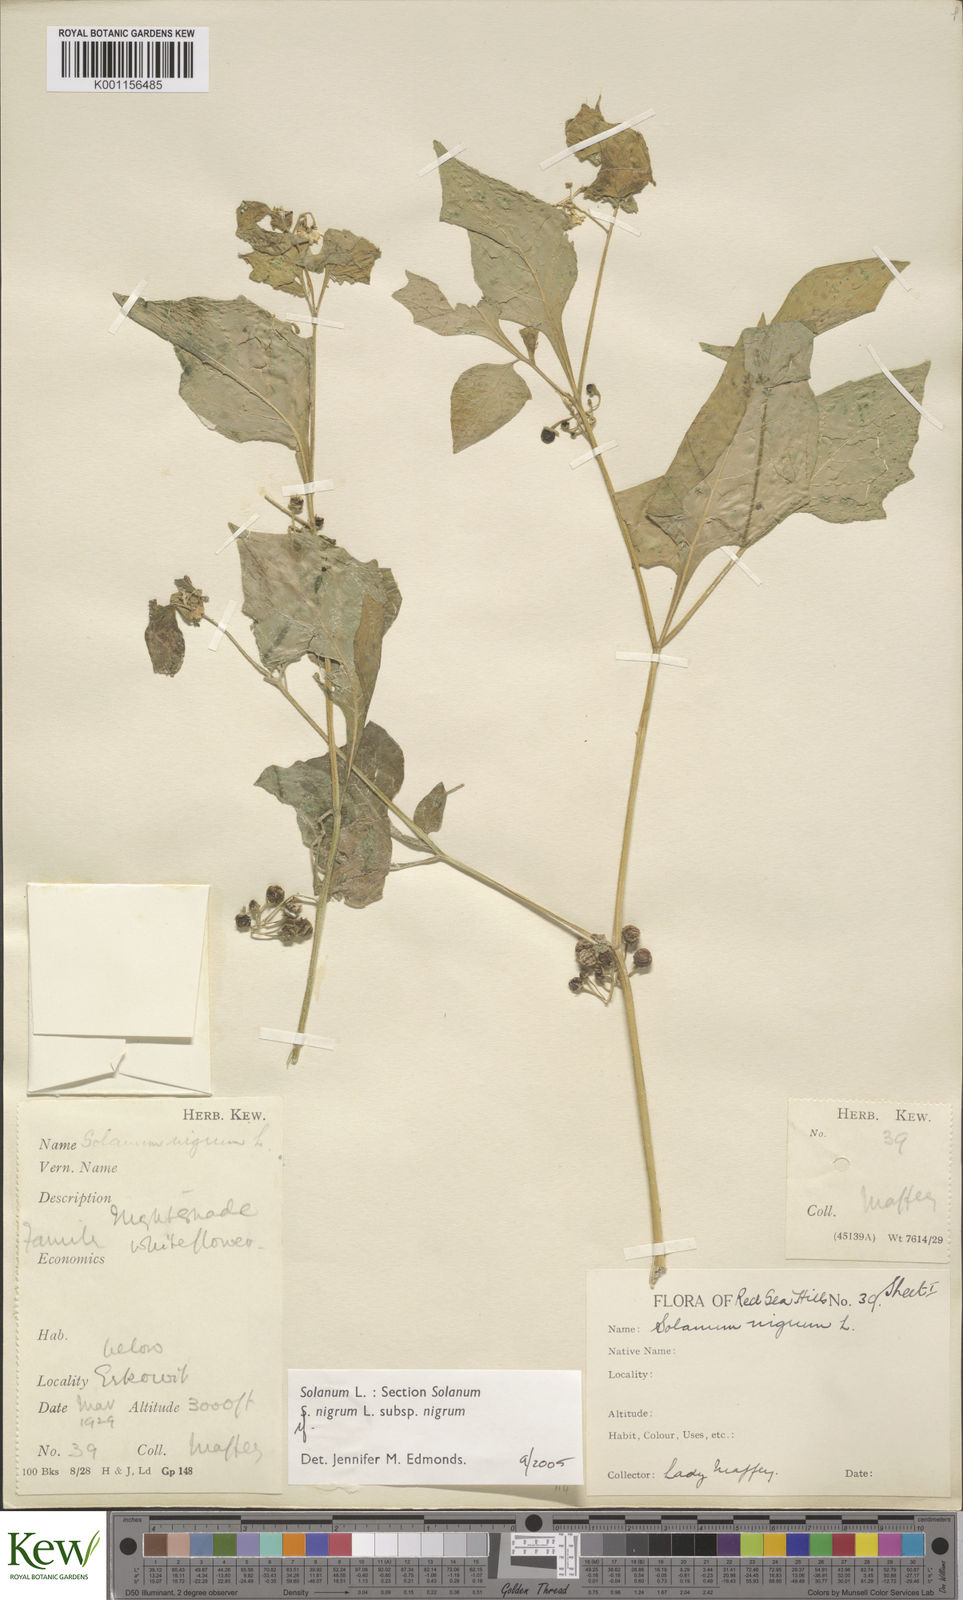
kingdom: Plantae
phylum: Tracheophyta
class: Magnoliopsida
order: Solanales
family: Solanaceae
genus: Solanum
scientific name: Solanum tarderemotum
